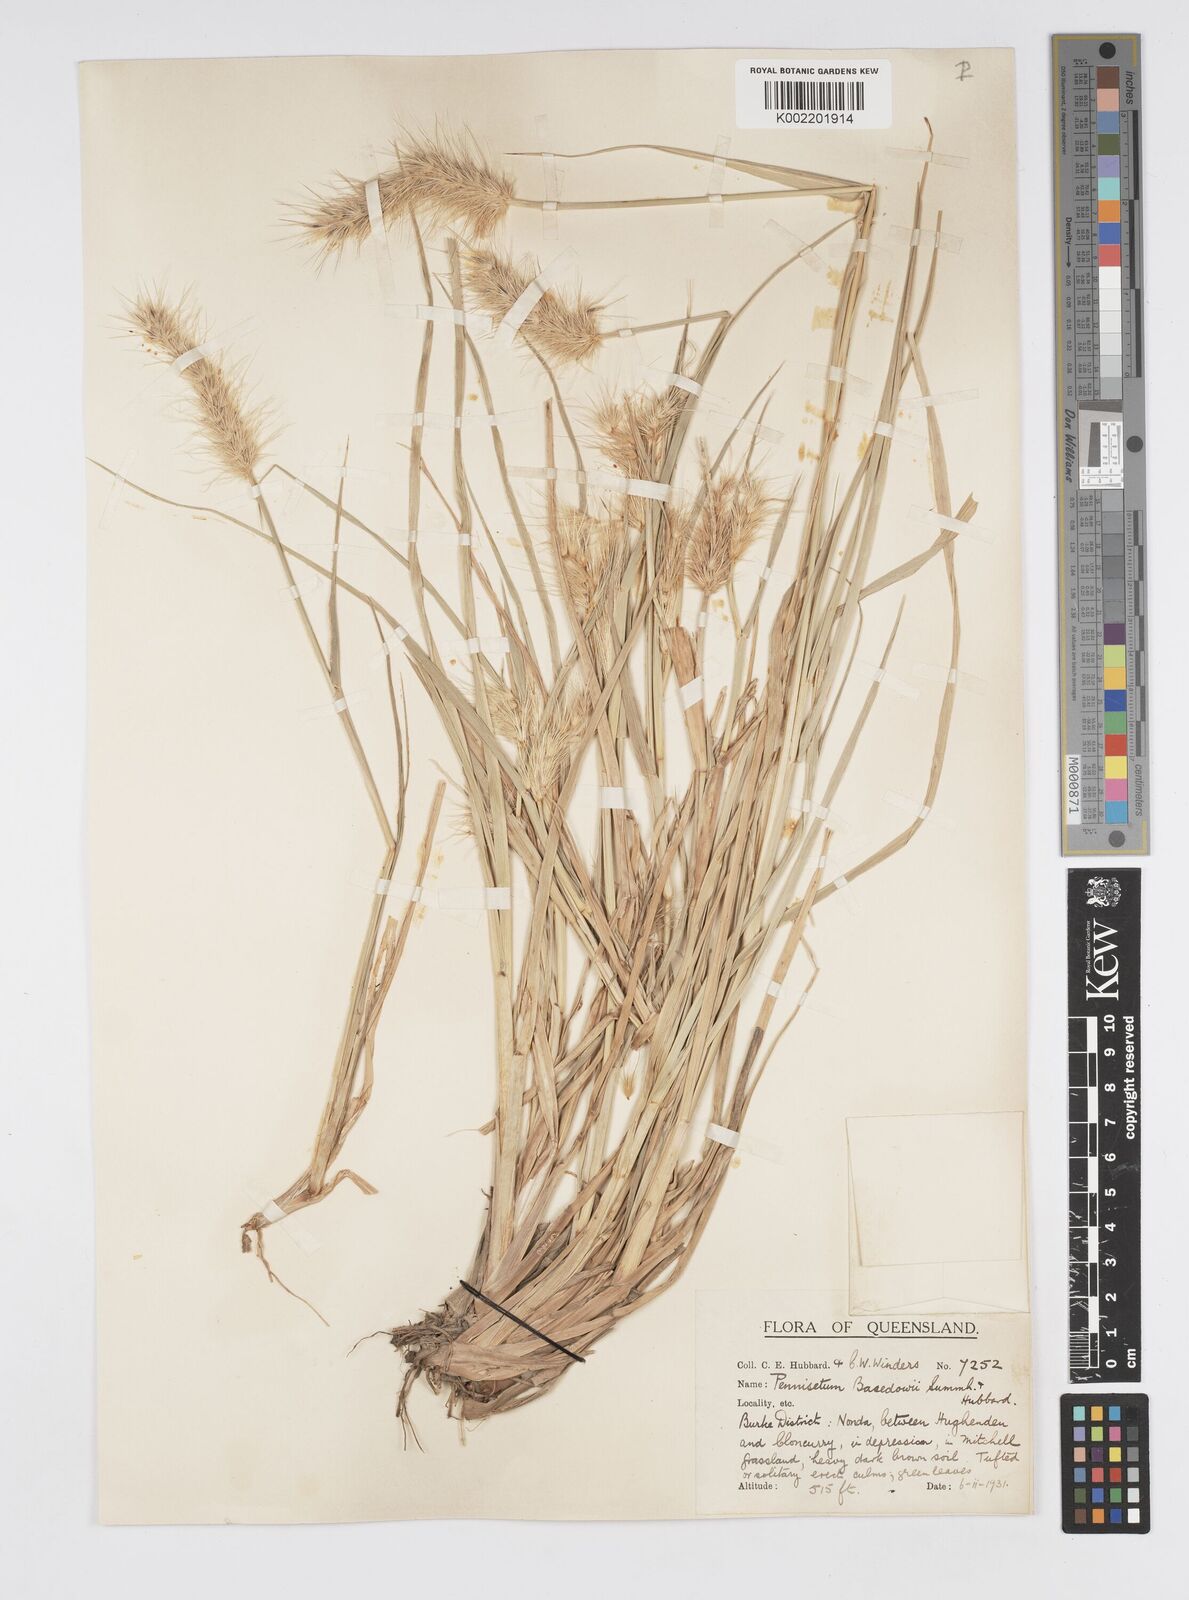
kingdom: Plantae
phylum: Tracheophyta
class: Liliopsida
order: Poales
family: Poaceae
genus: Cenchrus
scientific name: Cenchrus basedowii
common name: Asbestos grass
